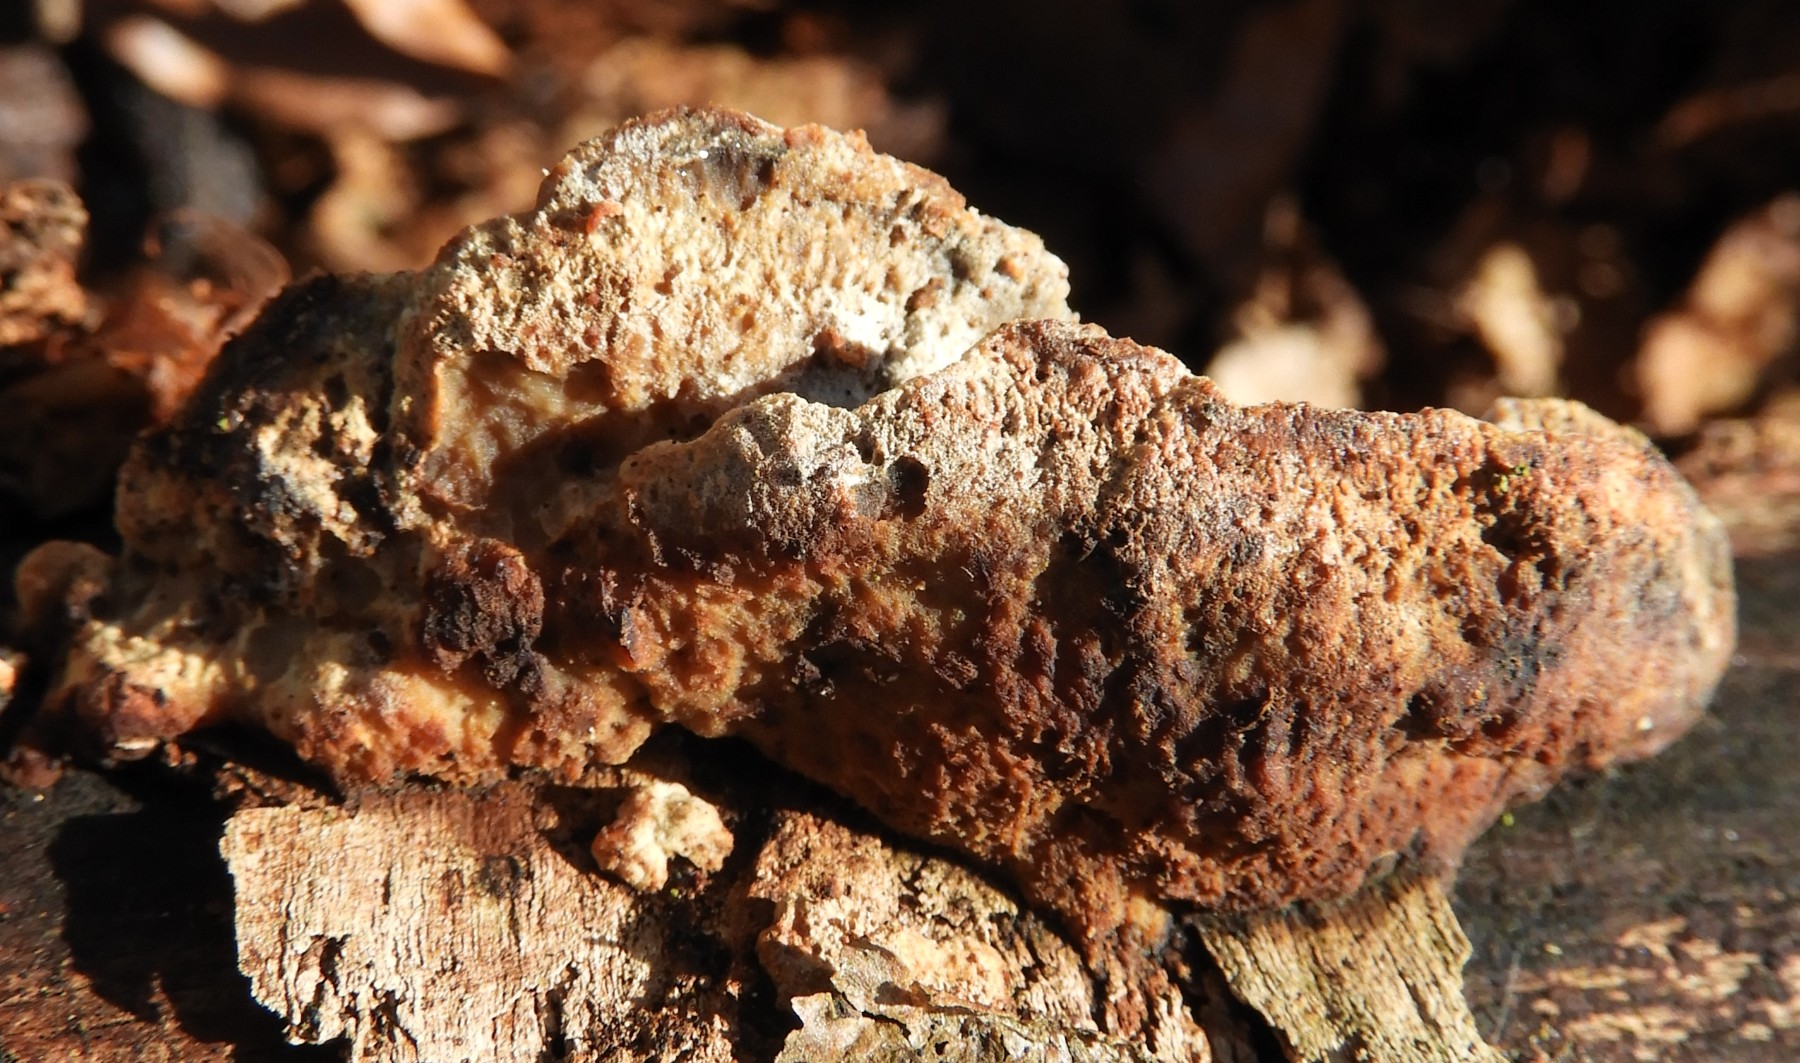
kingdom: Fungi
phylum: Basidiomycota
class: Agaricomycetes
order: Polyporales
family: Incrustoporiaceae
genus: Skeletocutis
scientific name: Skeletocutis nemoralis
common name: stor krystalporesvamp
